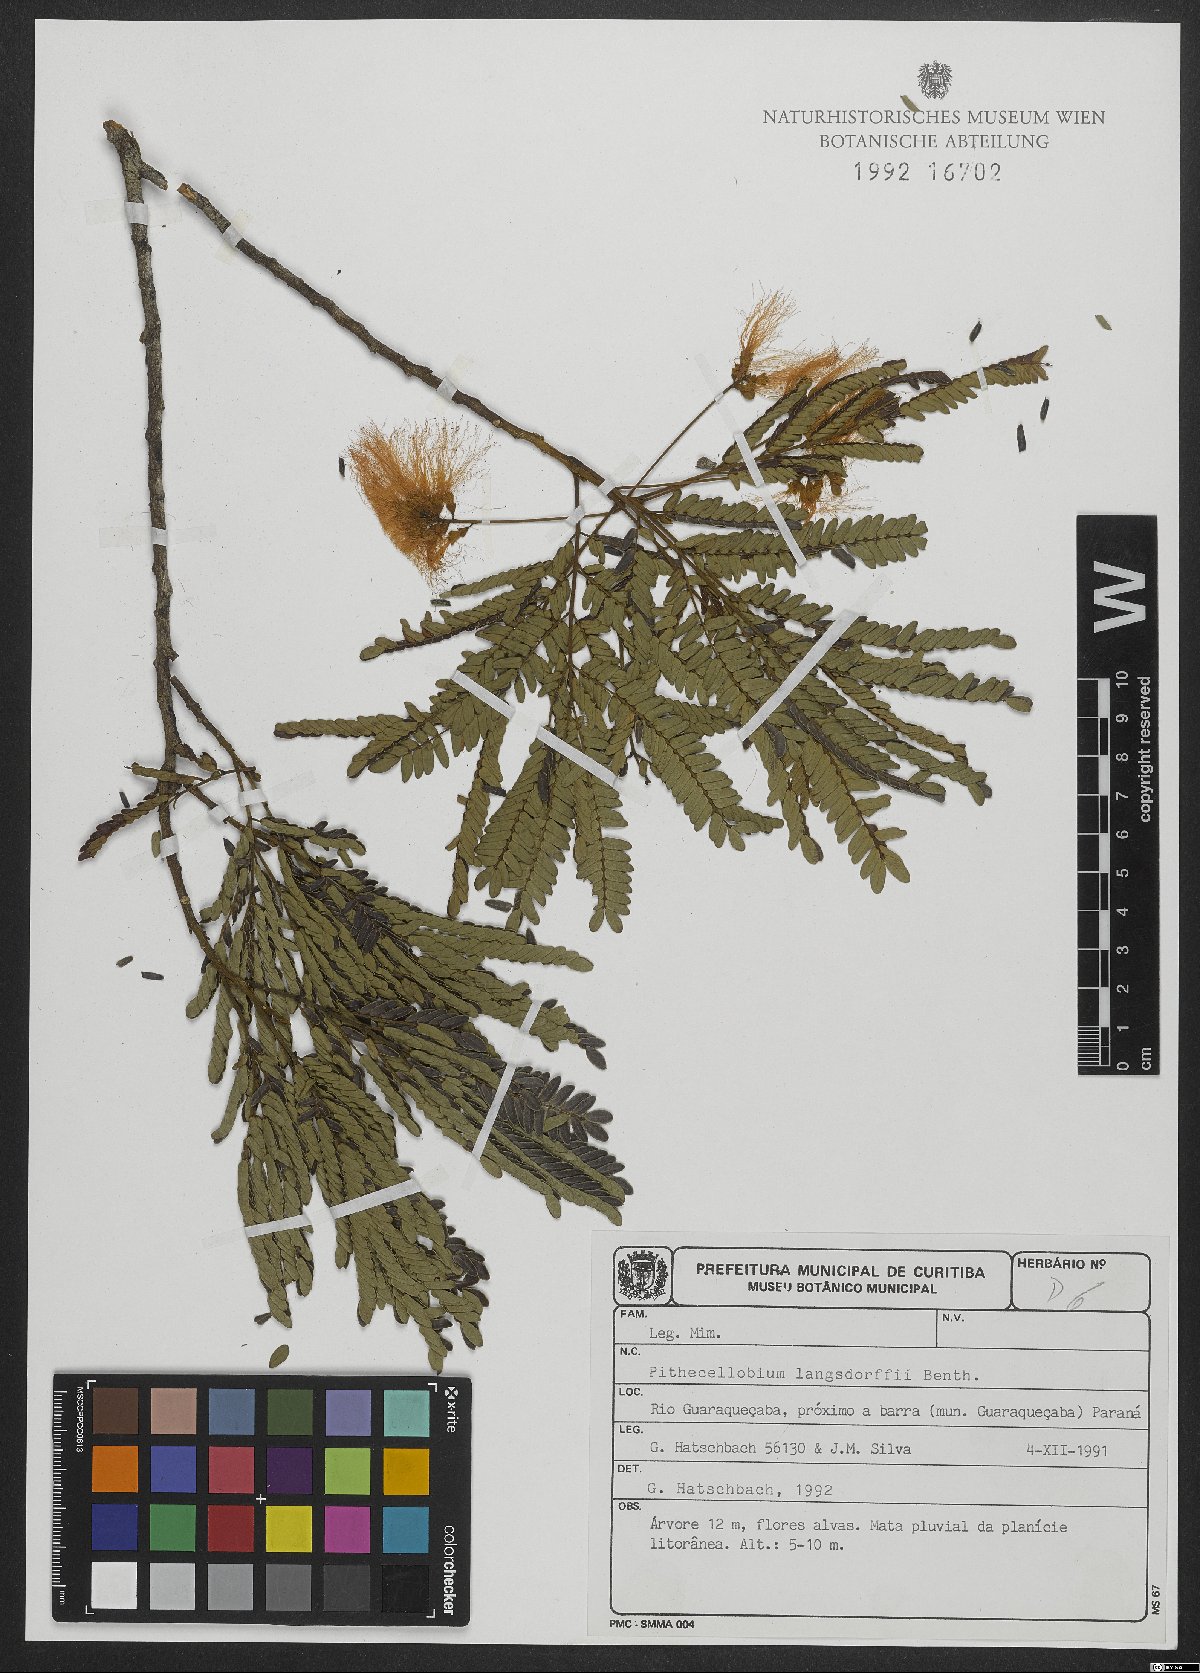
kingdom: Plantae
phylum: Tracheophyta
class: Magnoliopsida
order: Fabales
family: Fabaceae
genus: Jupunba
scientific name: Jupunba langsdorffii
